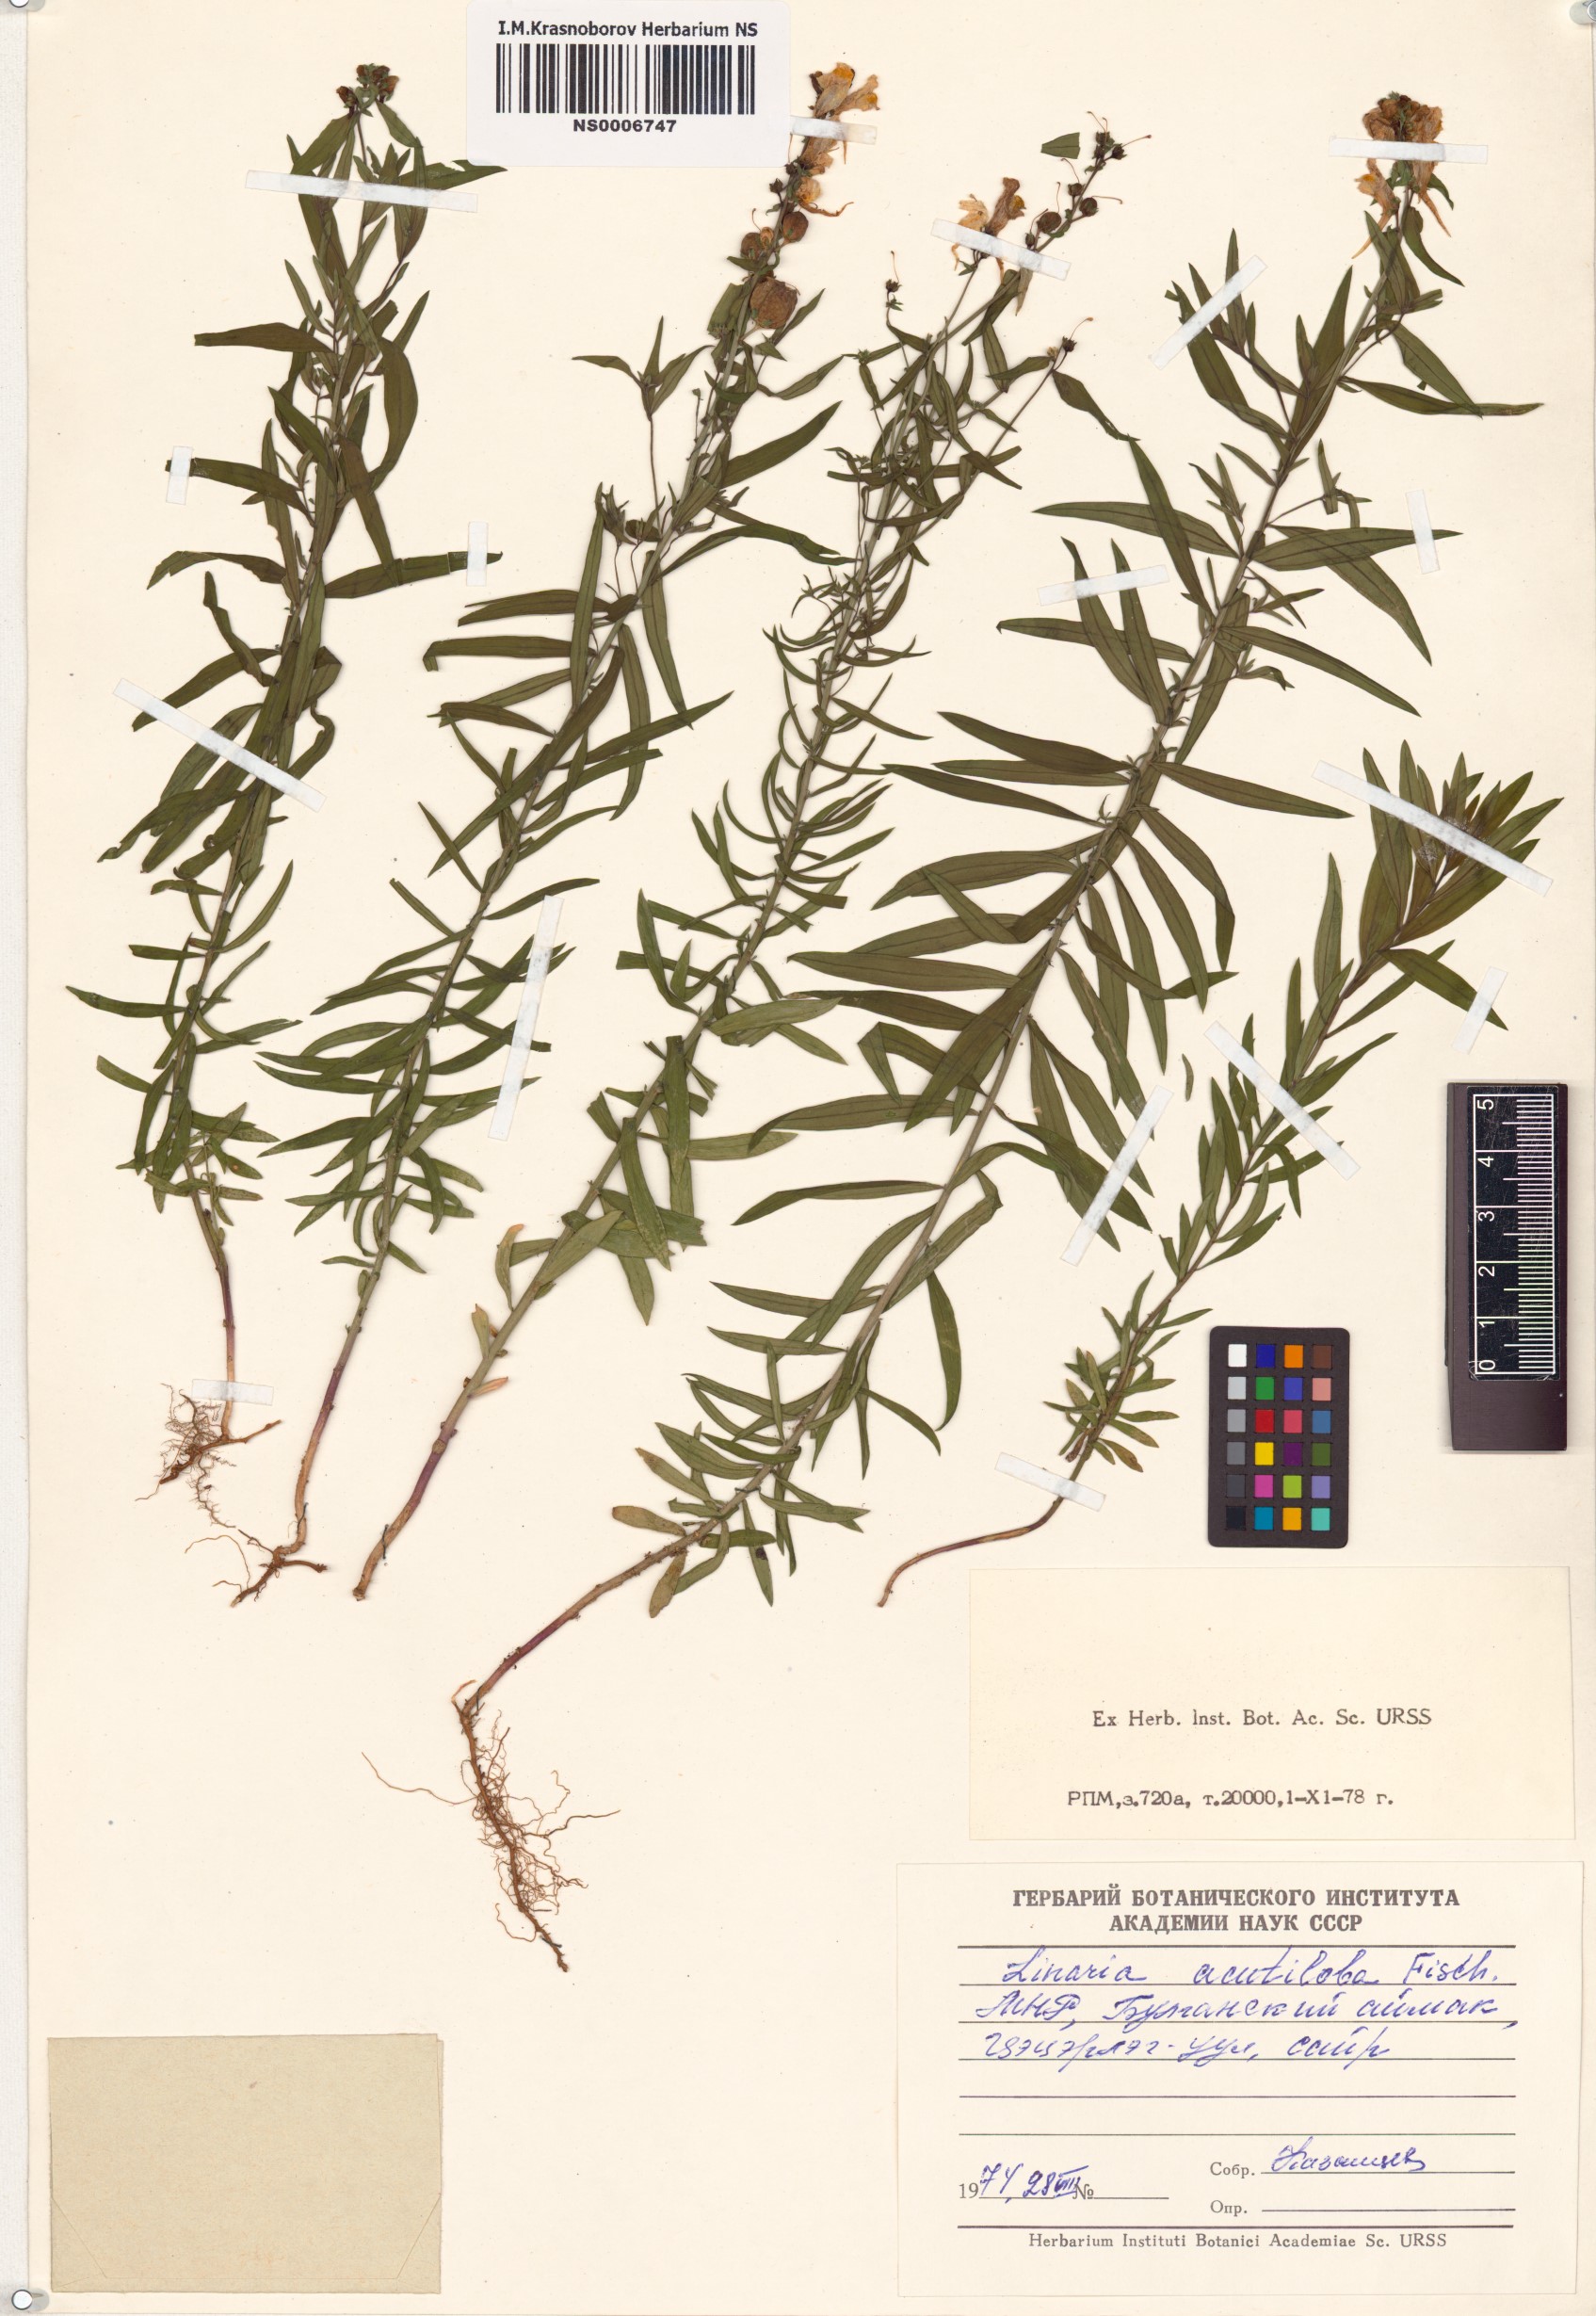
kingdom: Plantae
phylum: Tracheophyta
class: Magnoliopsida
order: Lamiales
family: Plantaginaceae
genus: Linaria
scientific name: Linaria acutiloba
